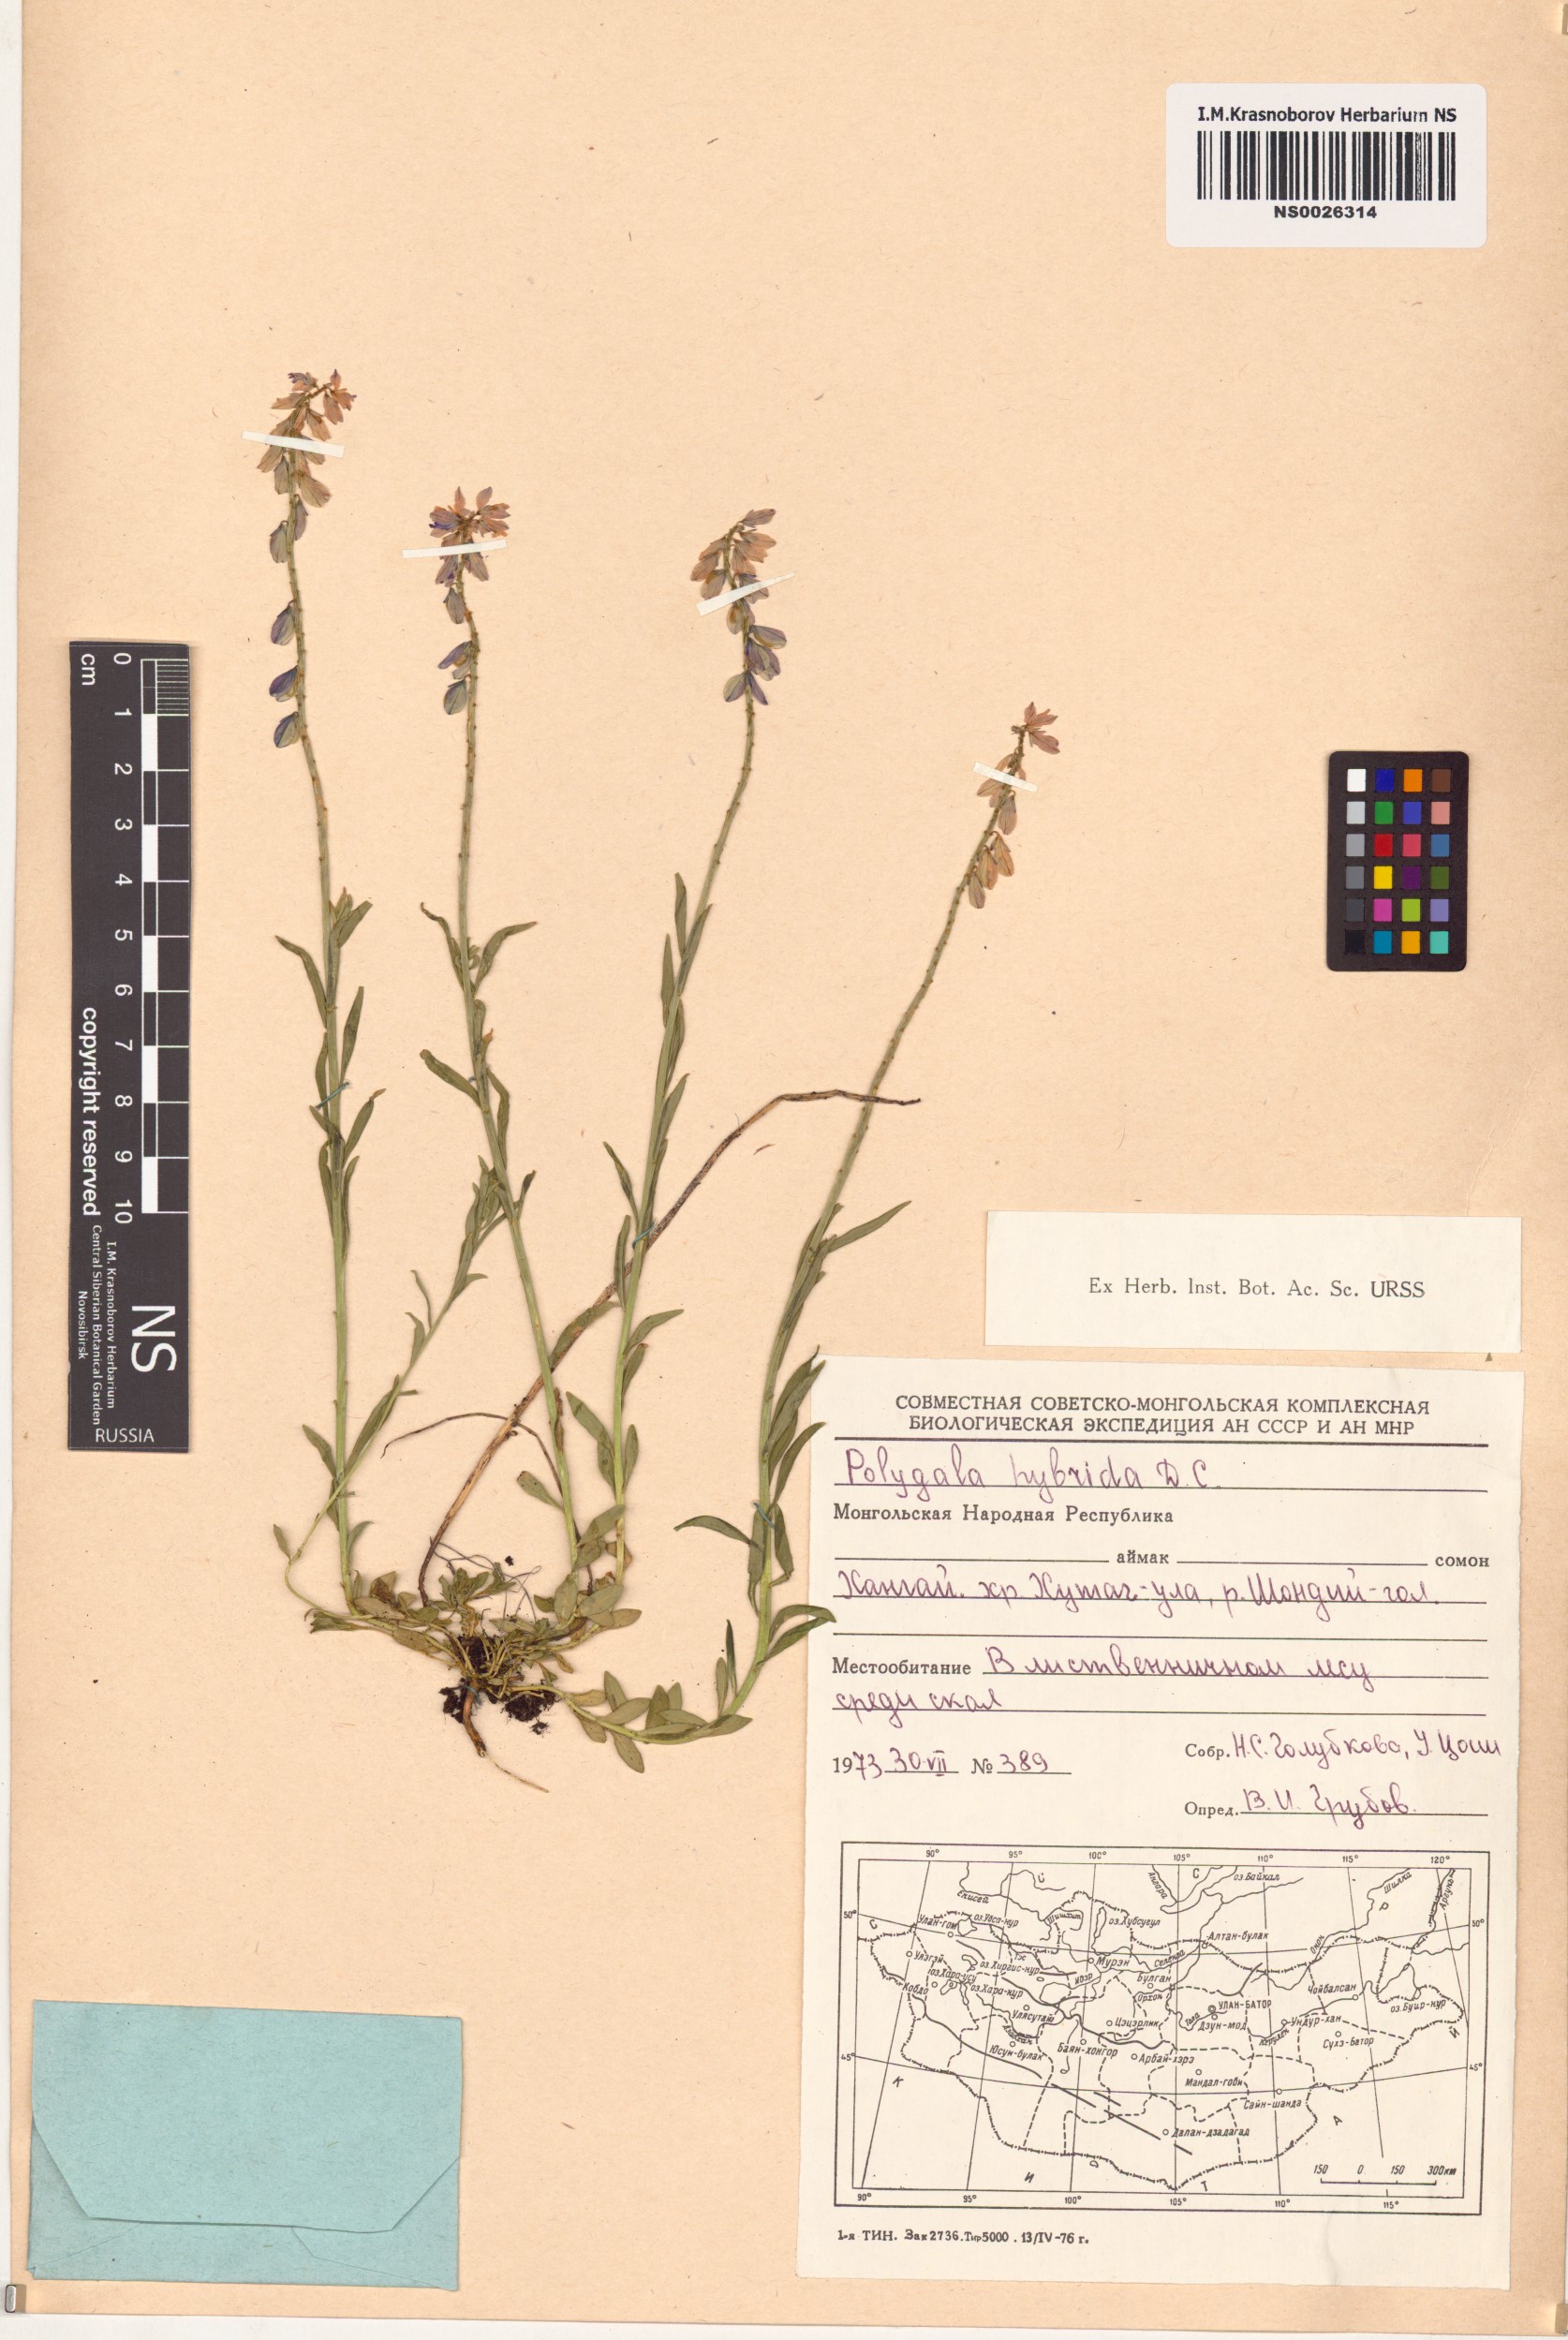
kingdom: Plantae
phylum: Tracheophyta
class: Magnoliopsida
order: Fabales
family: Polygalaceae
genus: Polygala
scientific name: Polygala comosa
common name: Tufted milkwort
